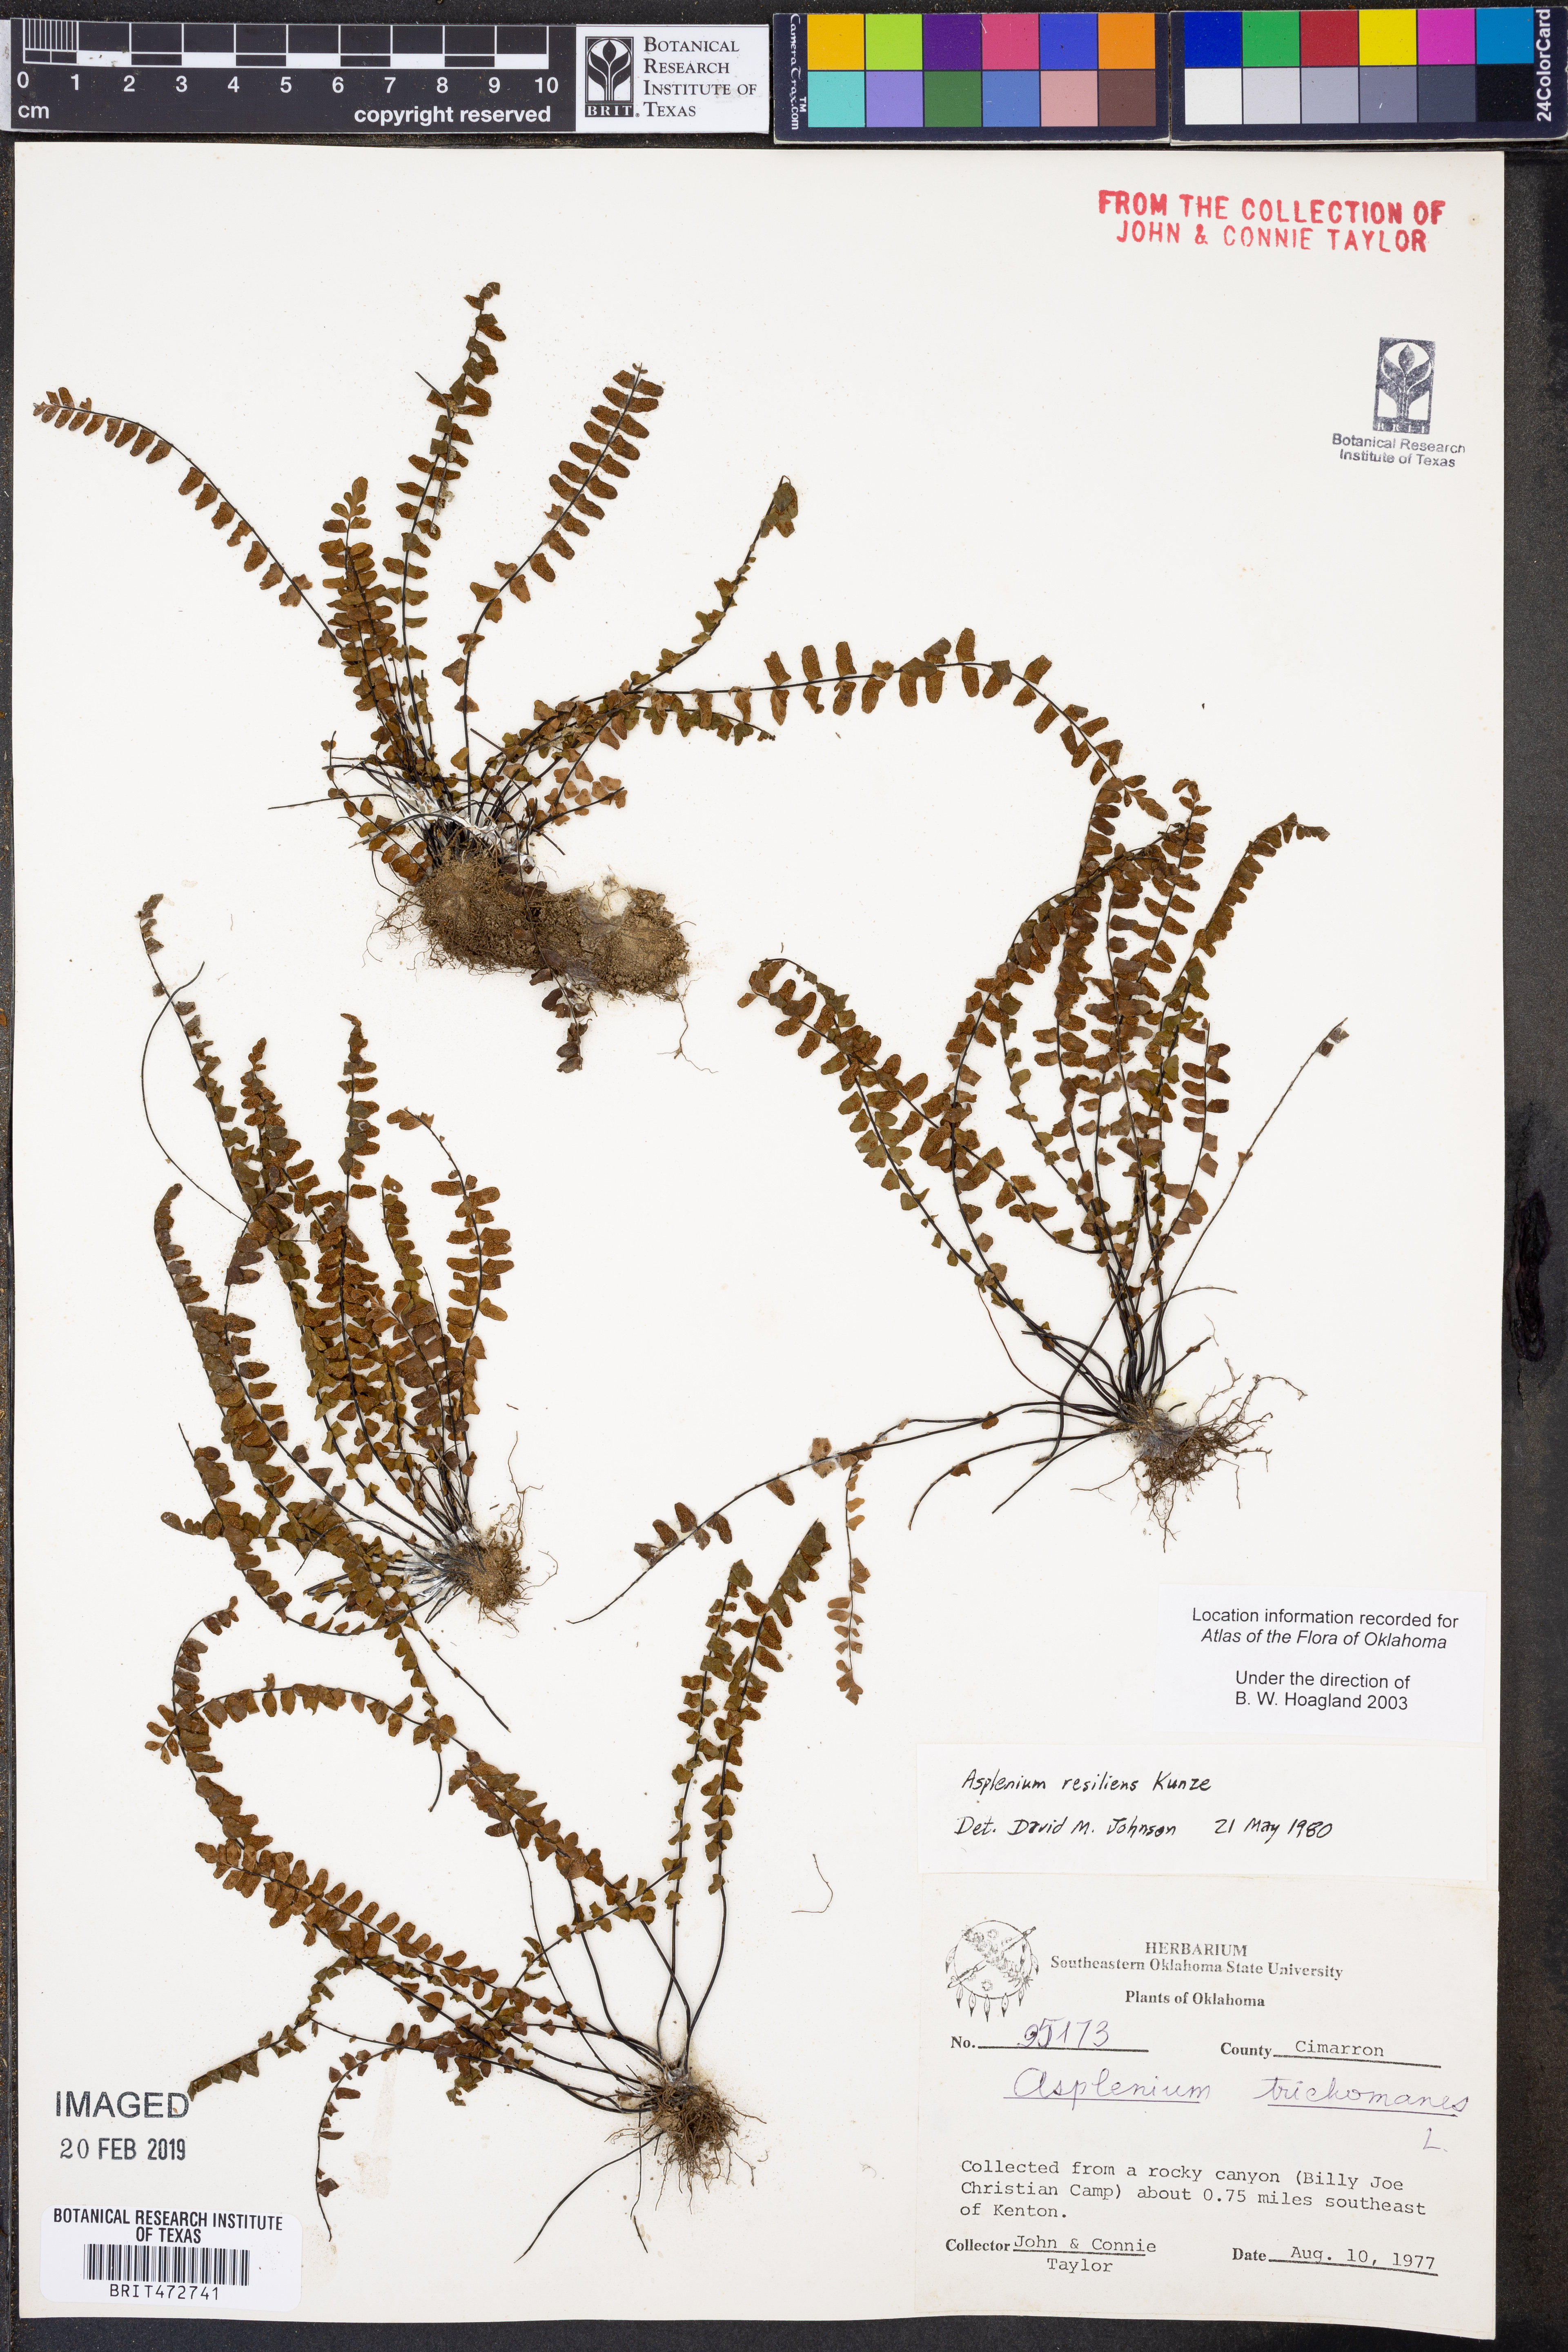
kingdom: Plantae
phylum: Tracheophyta
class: Polypodiopsida
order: Polypodiales
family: Aspleniaceae
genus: Asplenium
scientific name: Asplenium resiliens
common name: Blackstem spleenwort
